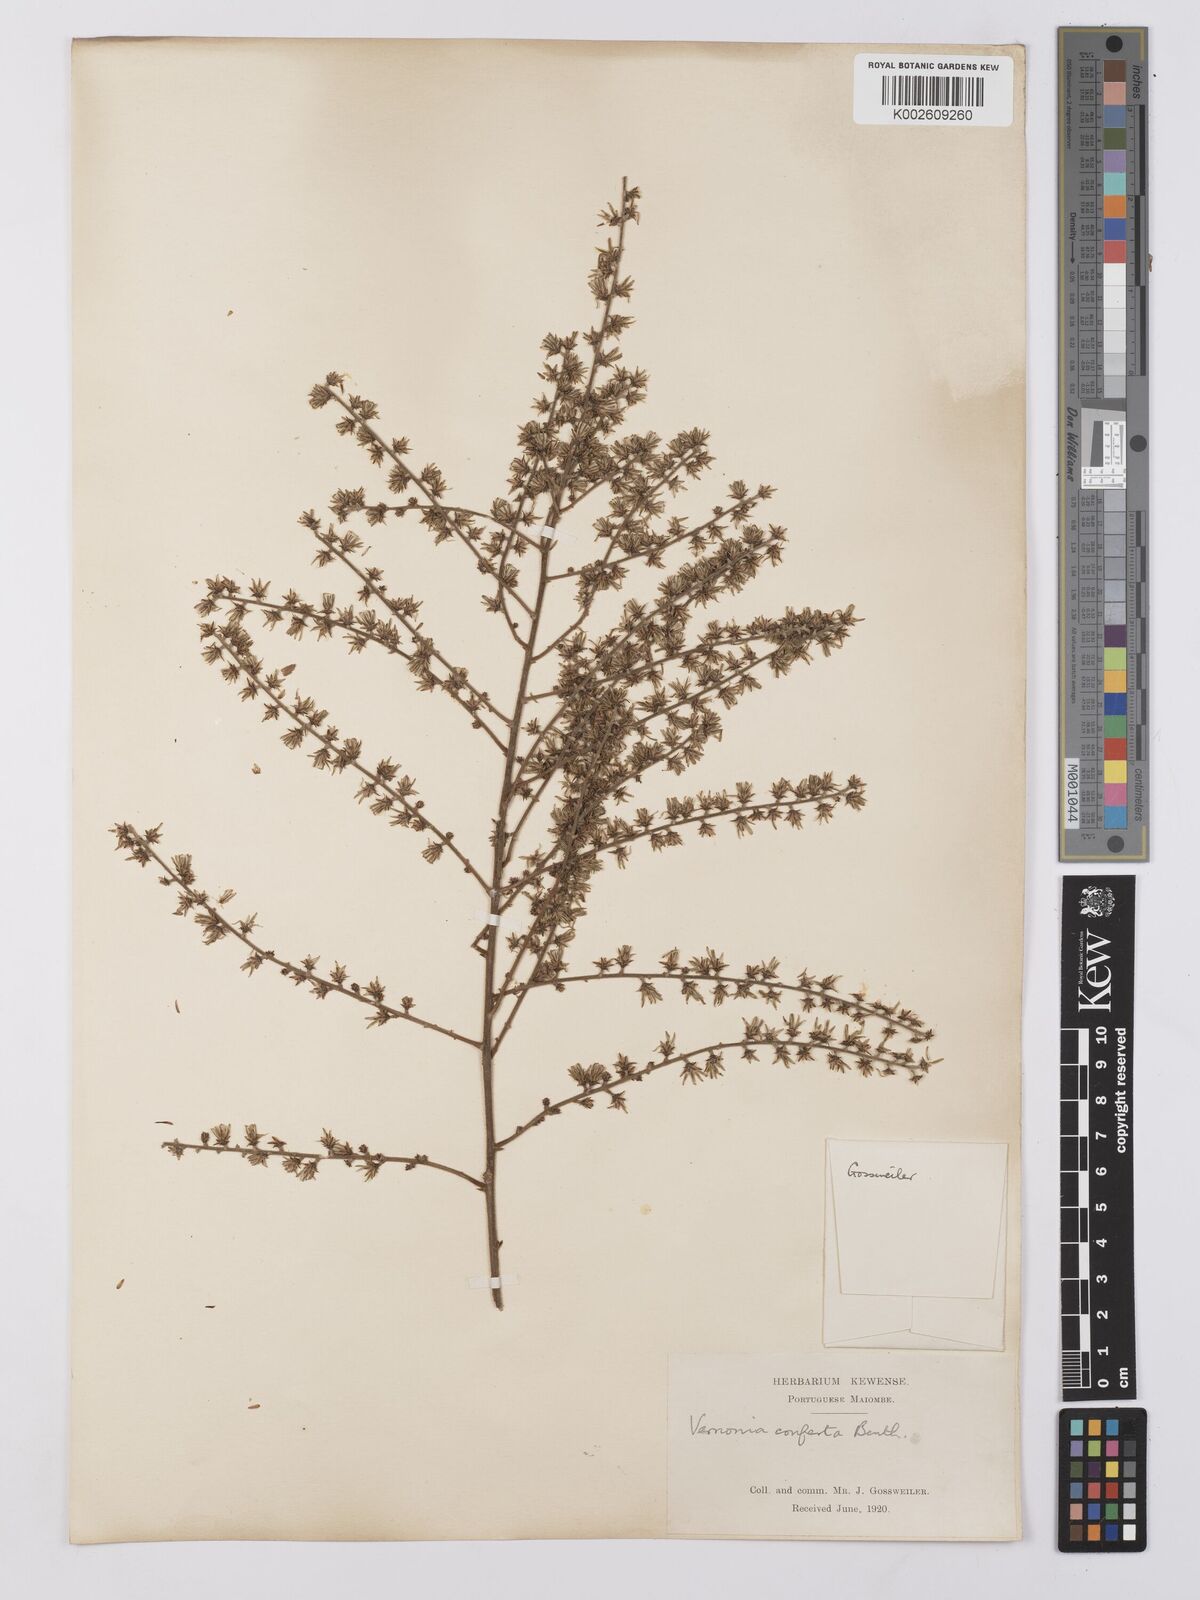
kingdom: Plantae
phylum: Tracheophyta
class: Magnoliopsida
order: Asterales
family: Asteraceae
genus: Monosis
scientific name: Monosis conferta
